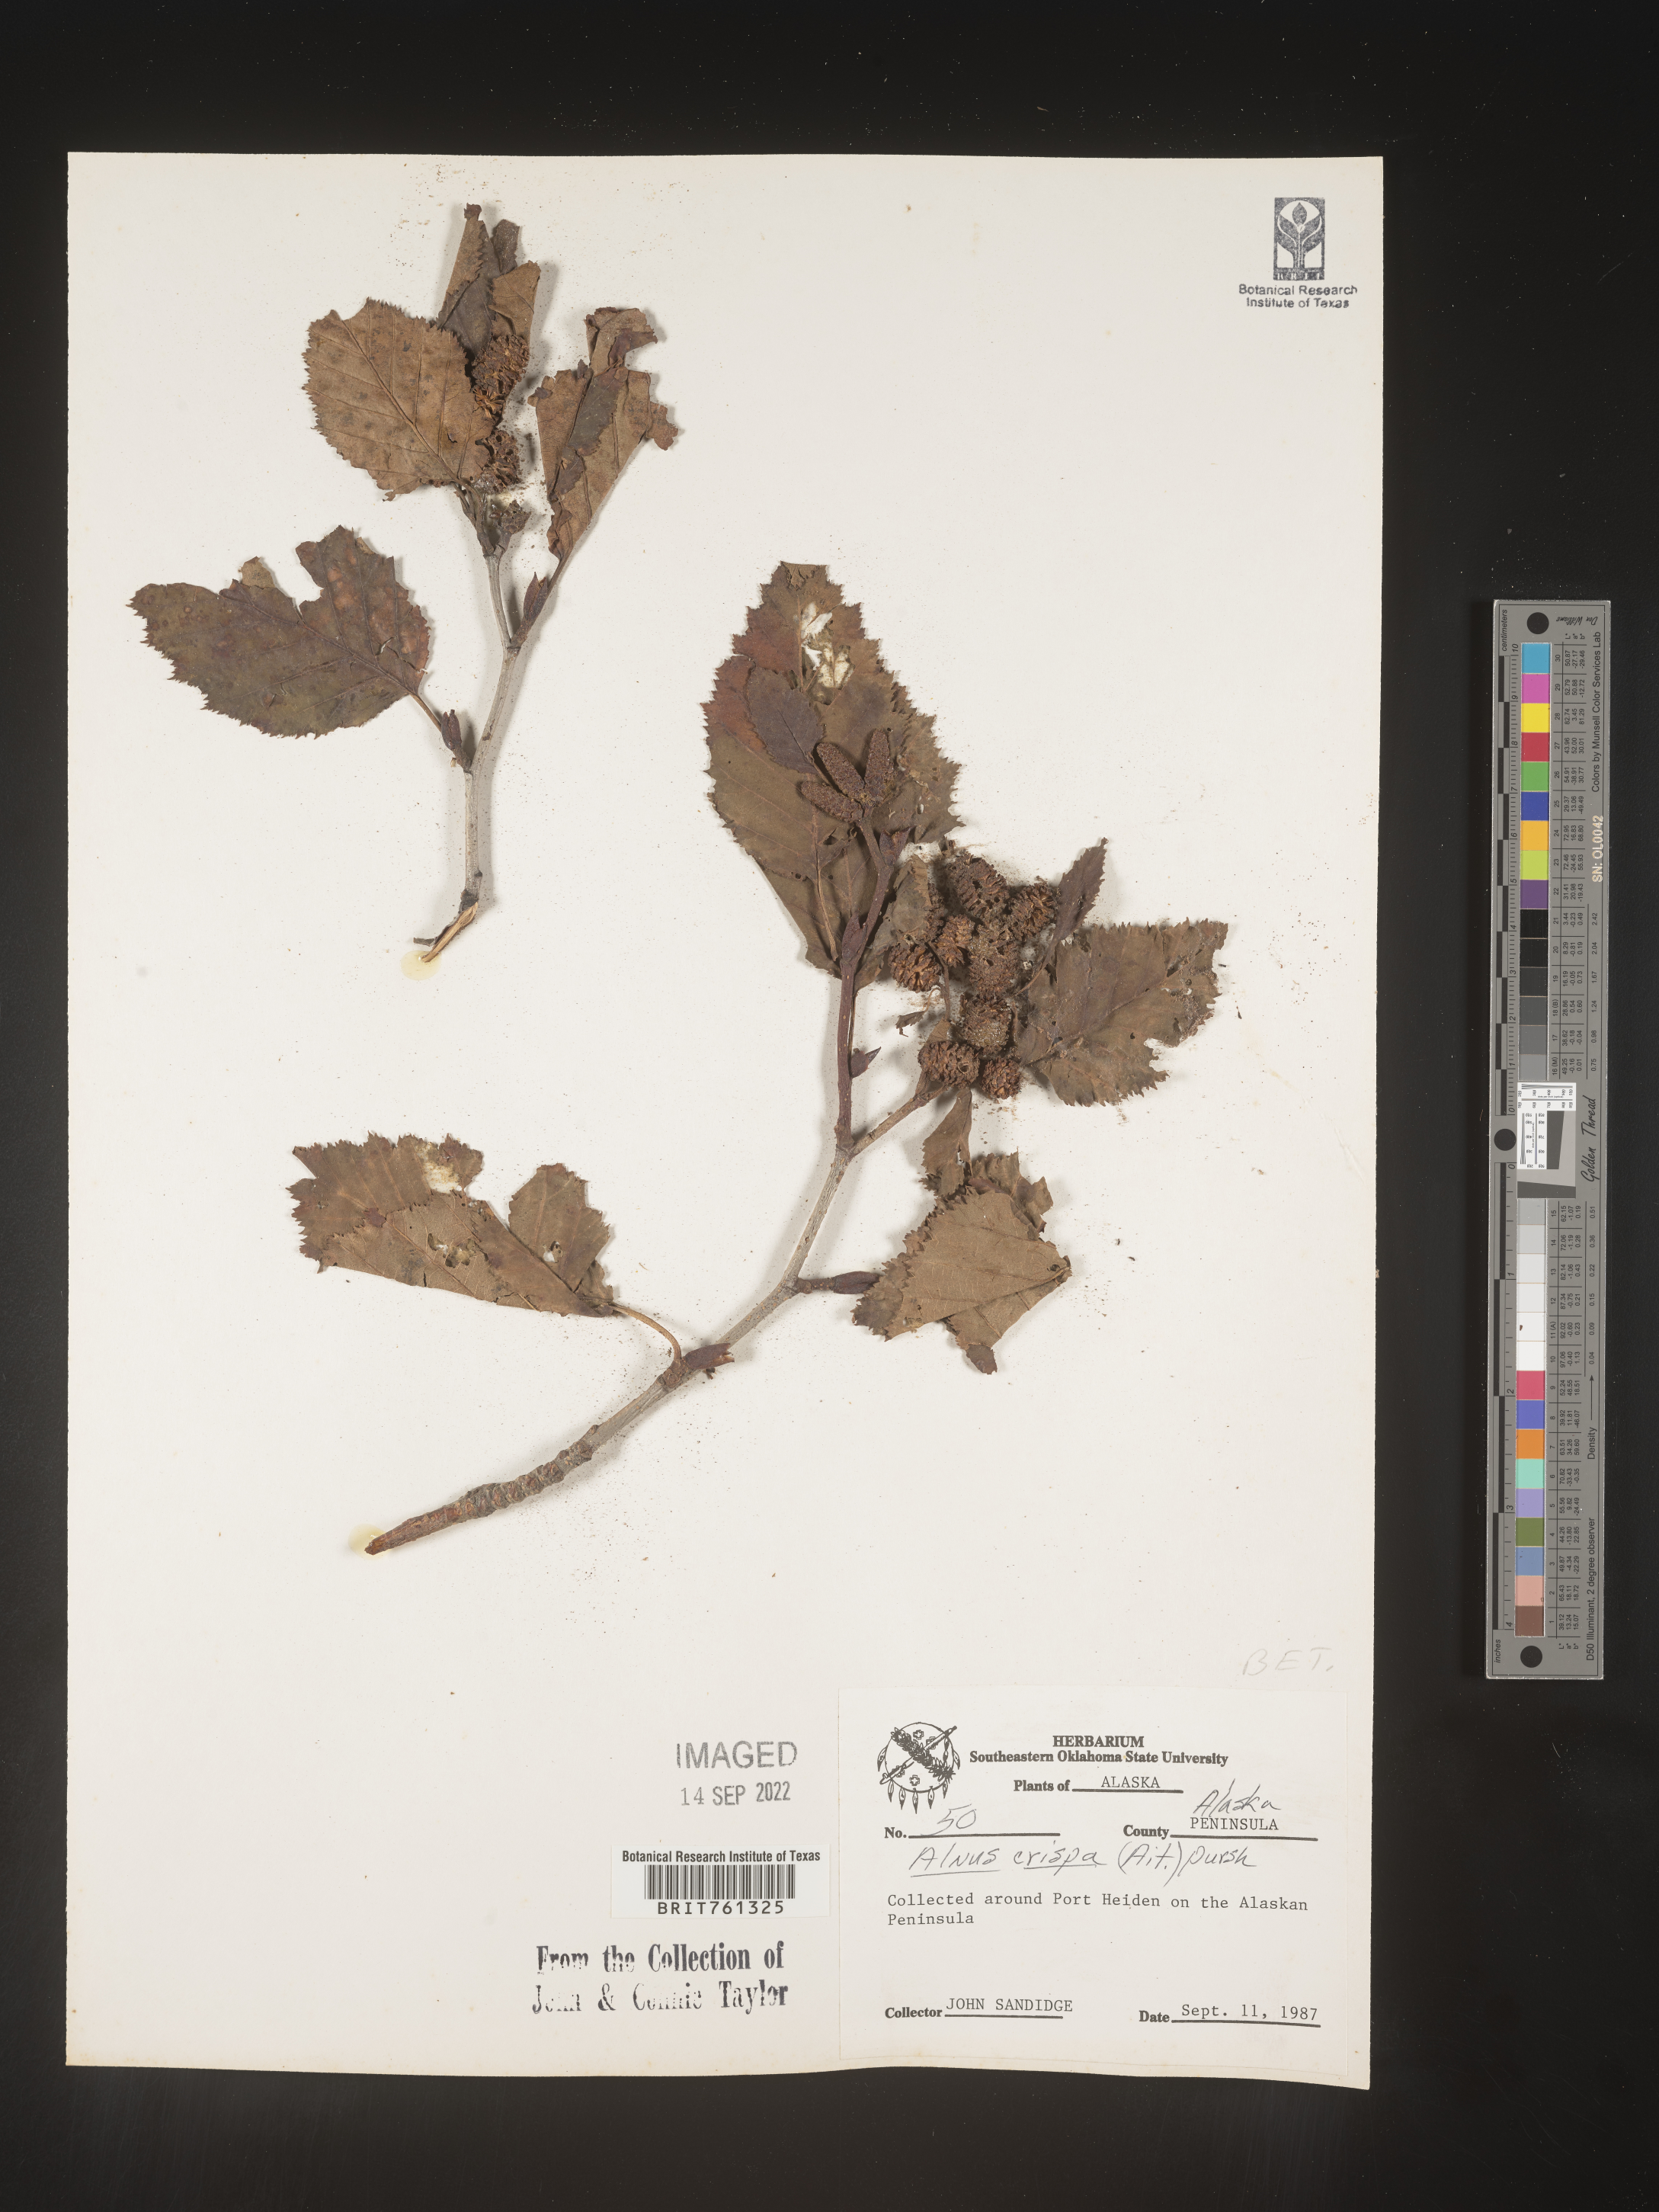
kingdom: Plantae
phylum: Tracheophyta
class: Magnoliopsida
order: Fagales
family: Betulaceae
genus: Alnus
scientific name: Alnus
